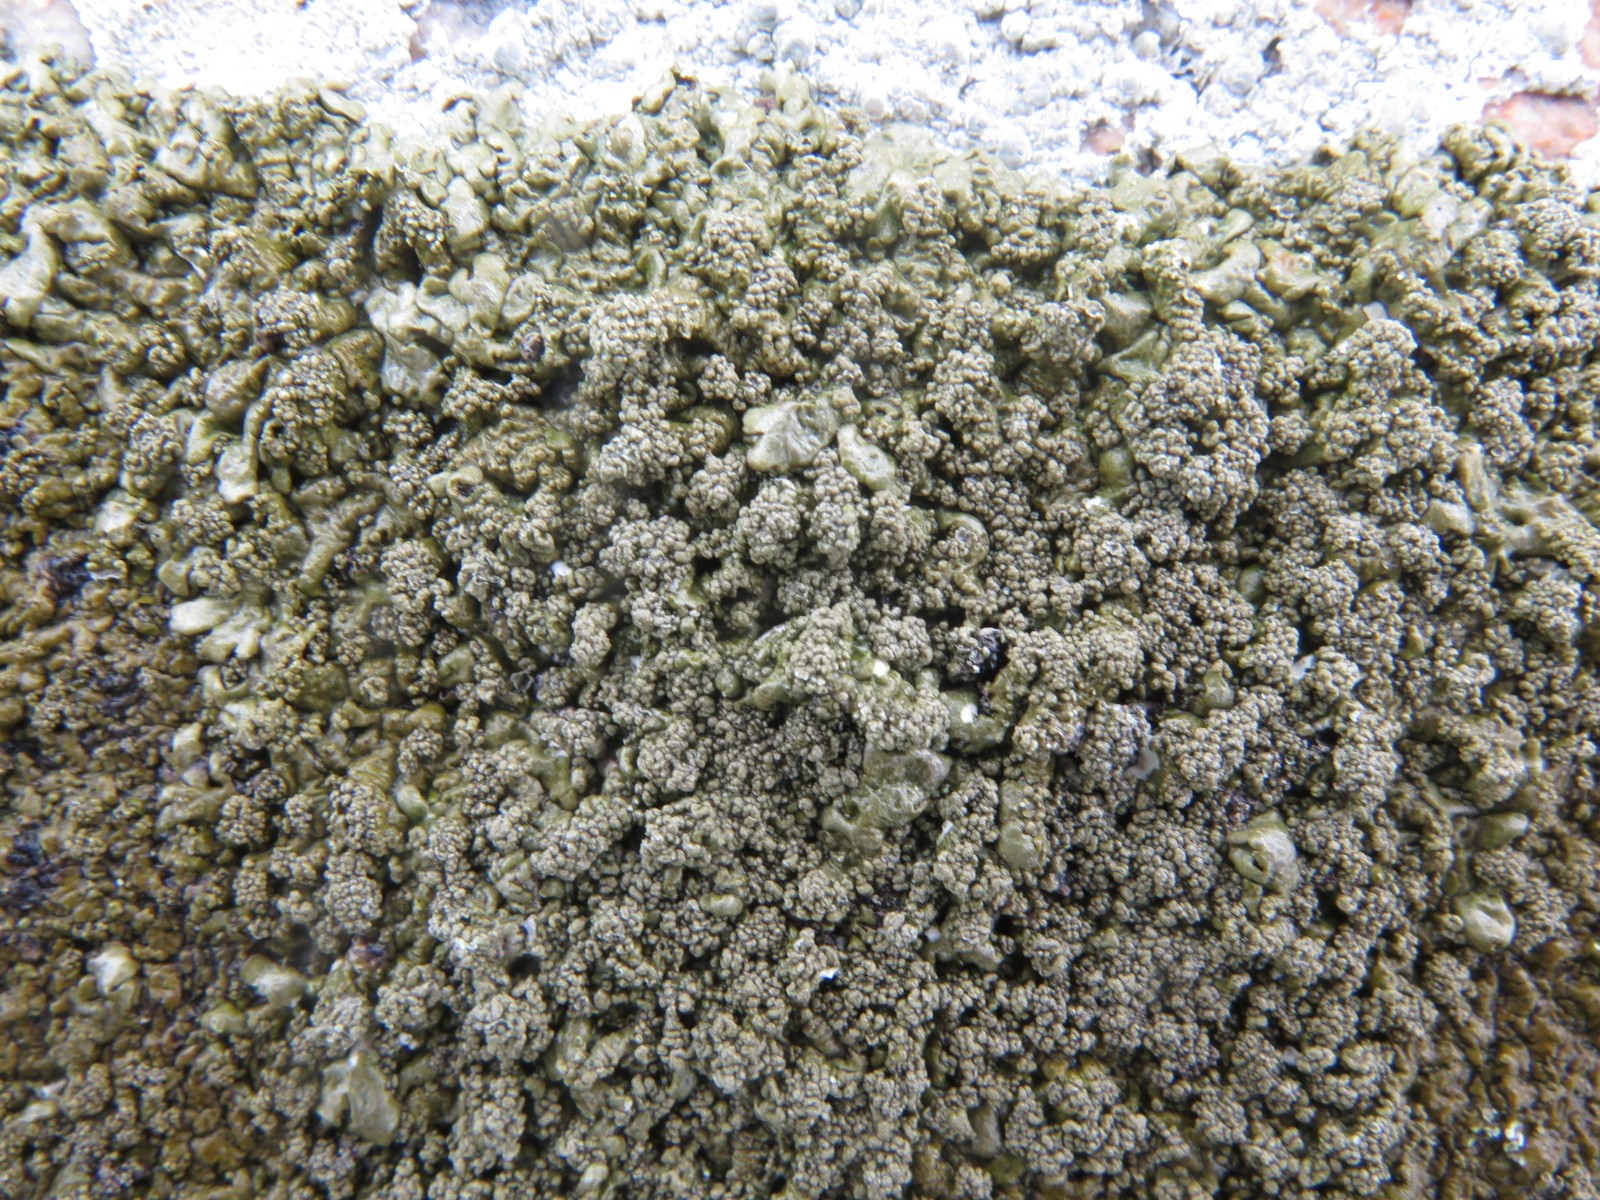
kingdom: Fungi
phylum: Ascomycota
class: Lecanoromycetes
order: Lecanorales
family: Parmeliaceae
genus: Xanthoparmelia
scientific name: Xanthoparmelia loxodes
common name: knudret skållav
